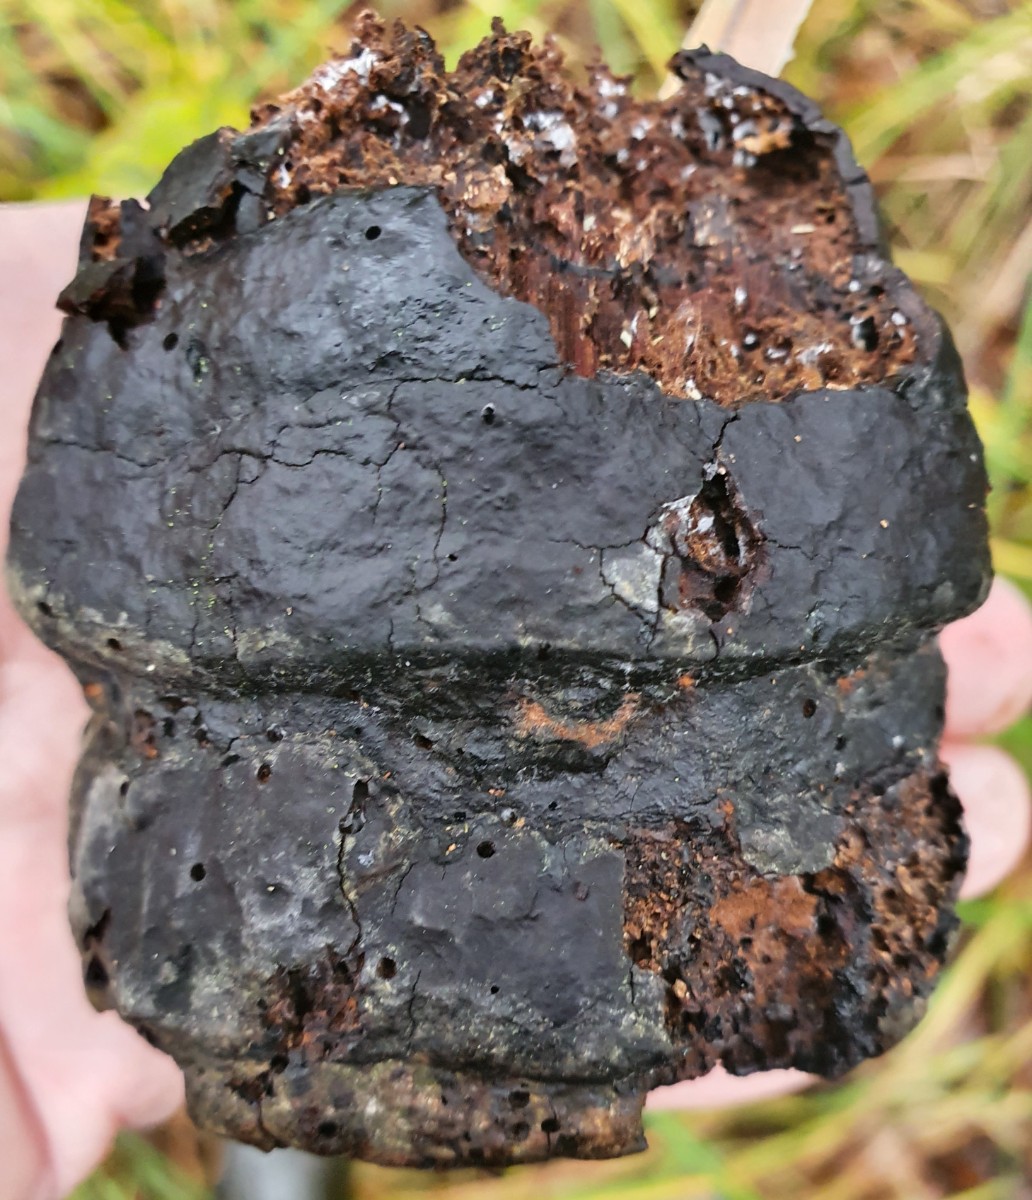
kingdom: Fungi
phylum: Basidiomycota
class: Agaricomycetes
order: Hymenochaetales
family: Hymenochaetaceae
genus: Inonotus
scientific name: Inonotus obliquus
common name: birke-spejlporesvamp
